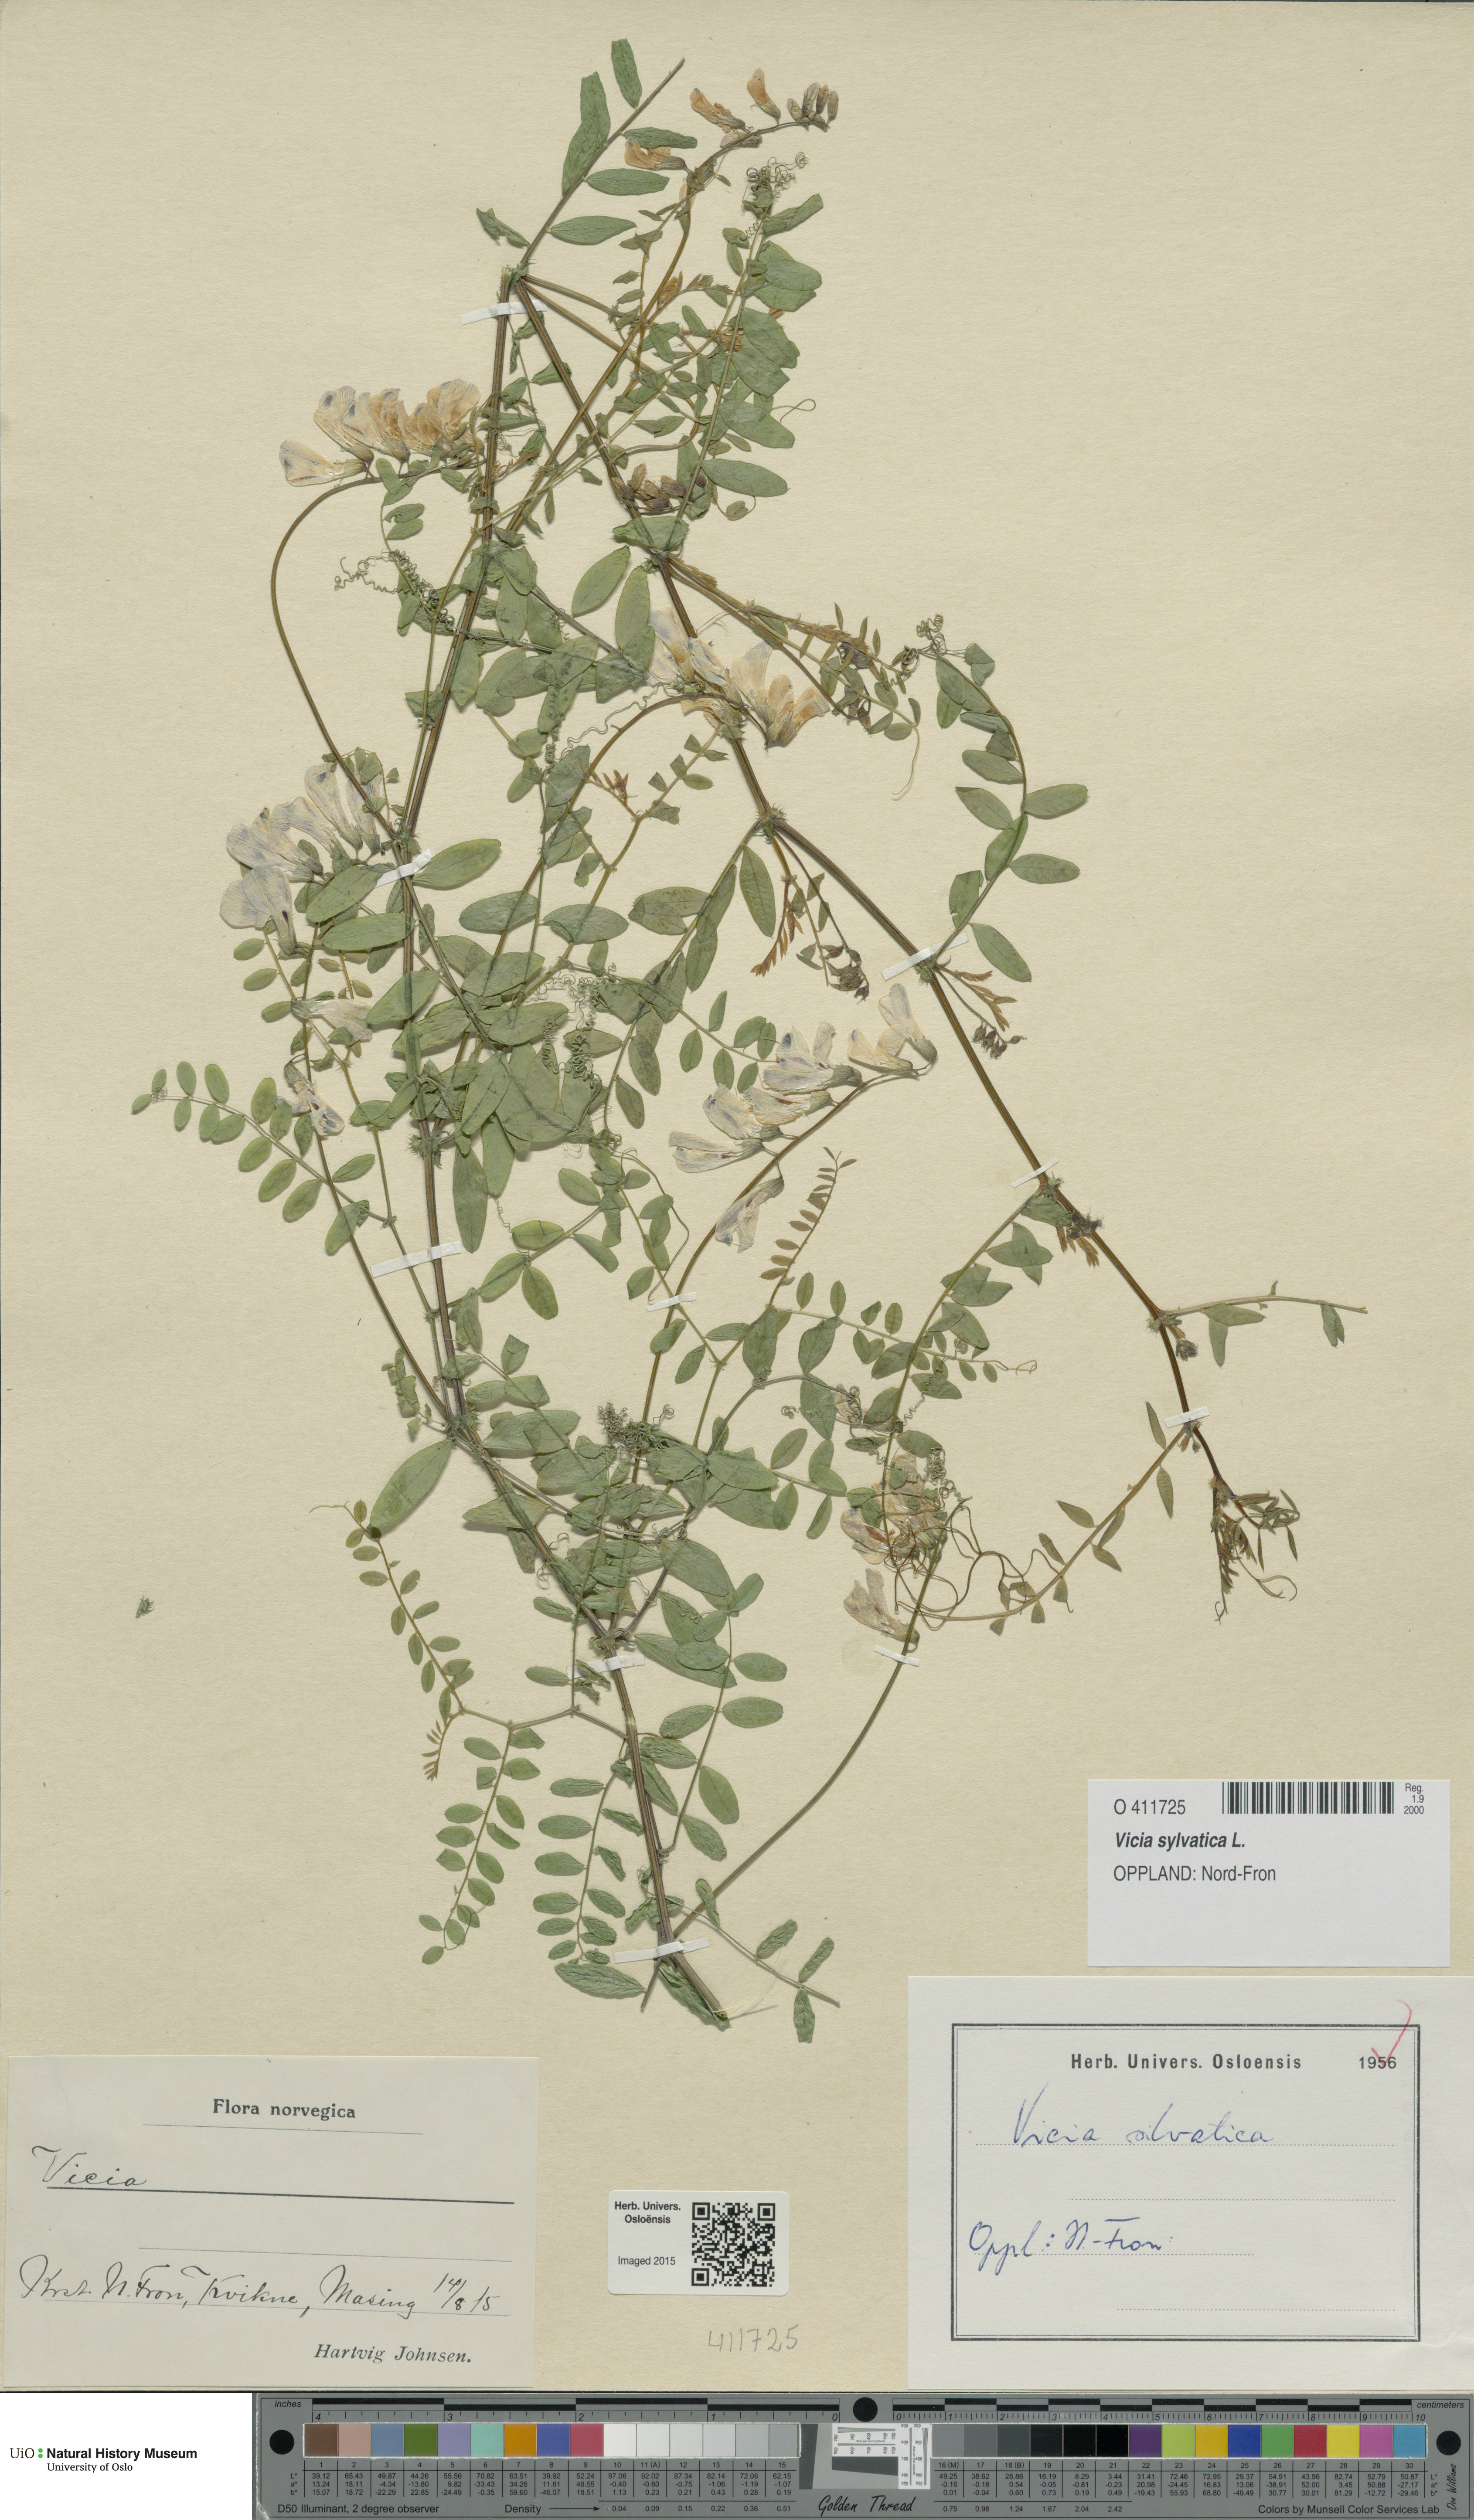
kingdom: Plantae
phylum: Tracheophyta
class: Magnoliopsida
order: Fabales
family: Fabaceae
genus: Vicia
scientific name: Vicia sylvatica
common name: Wood vetch
